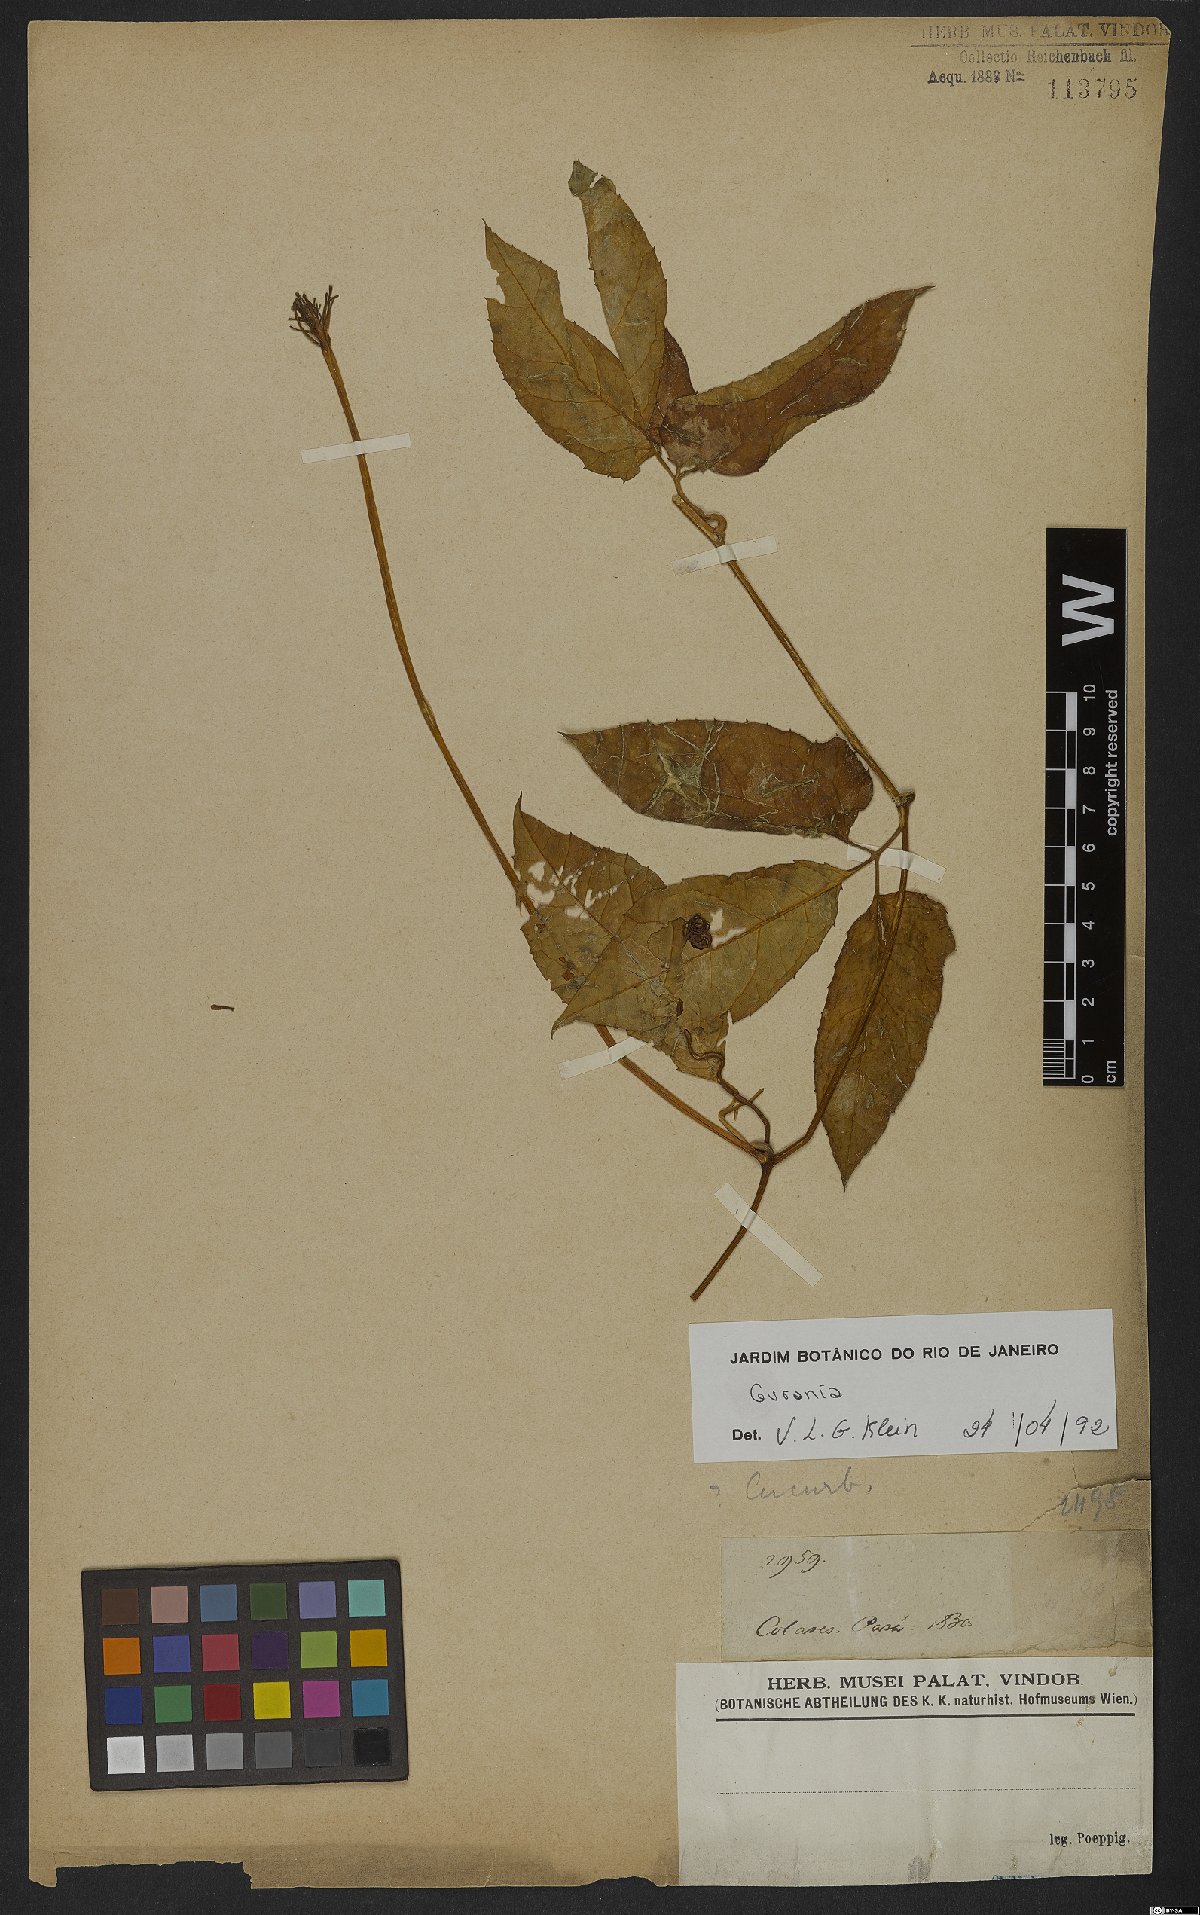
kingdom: Plantae
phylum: Tracheophyta
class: Magnoliopsida
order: Cucurbitales
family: Cucurbitaceae
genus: Gurania
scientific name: Gurania
